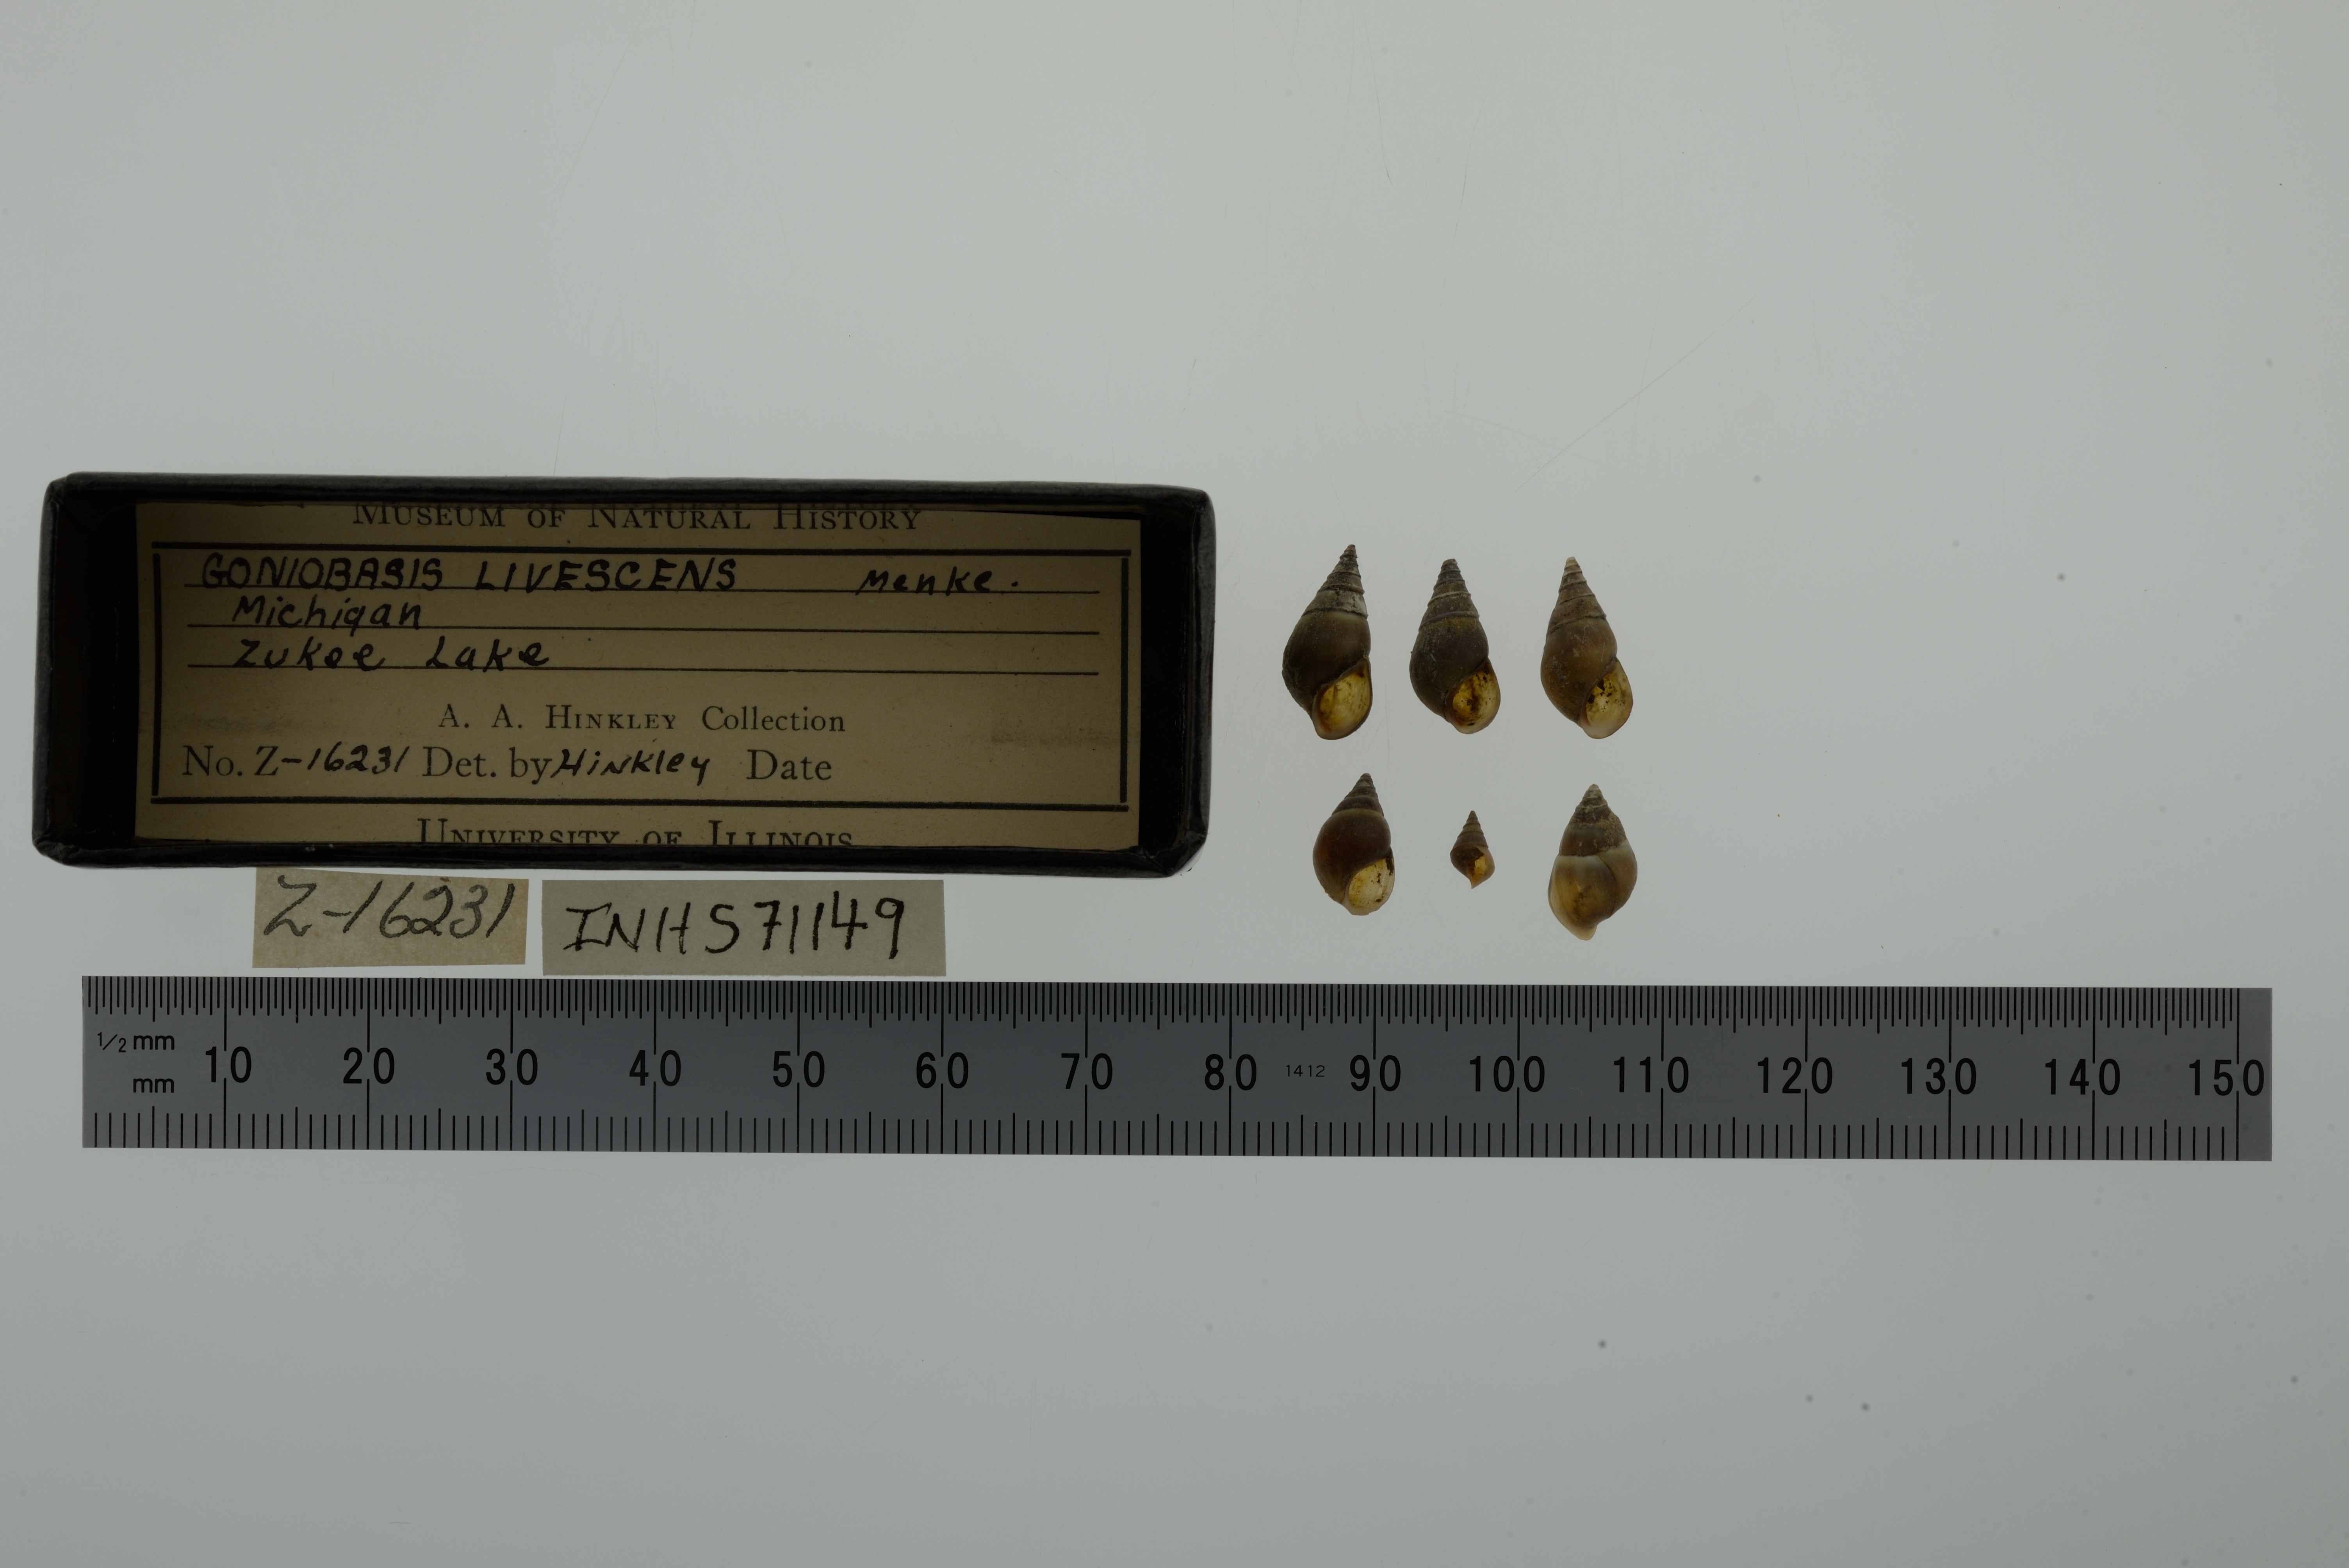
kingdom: Animalia
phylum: Mollusca
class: Gastropoda
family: Pleuroceridae
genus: Elimia
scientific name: Elimia livescens
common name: Liver elimia
